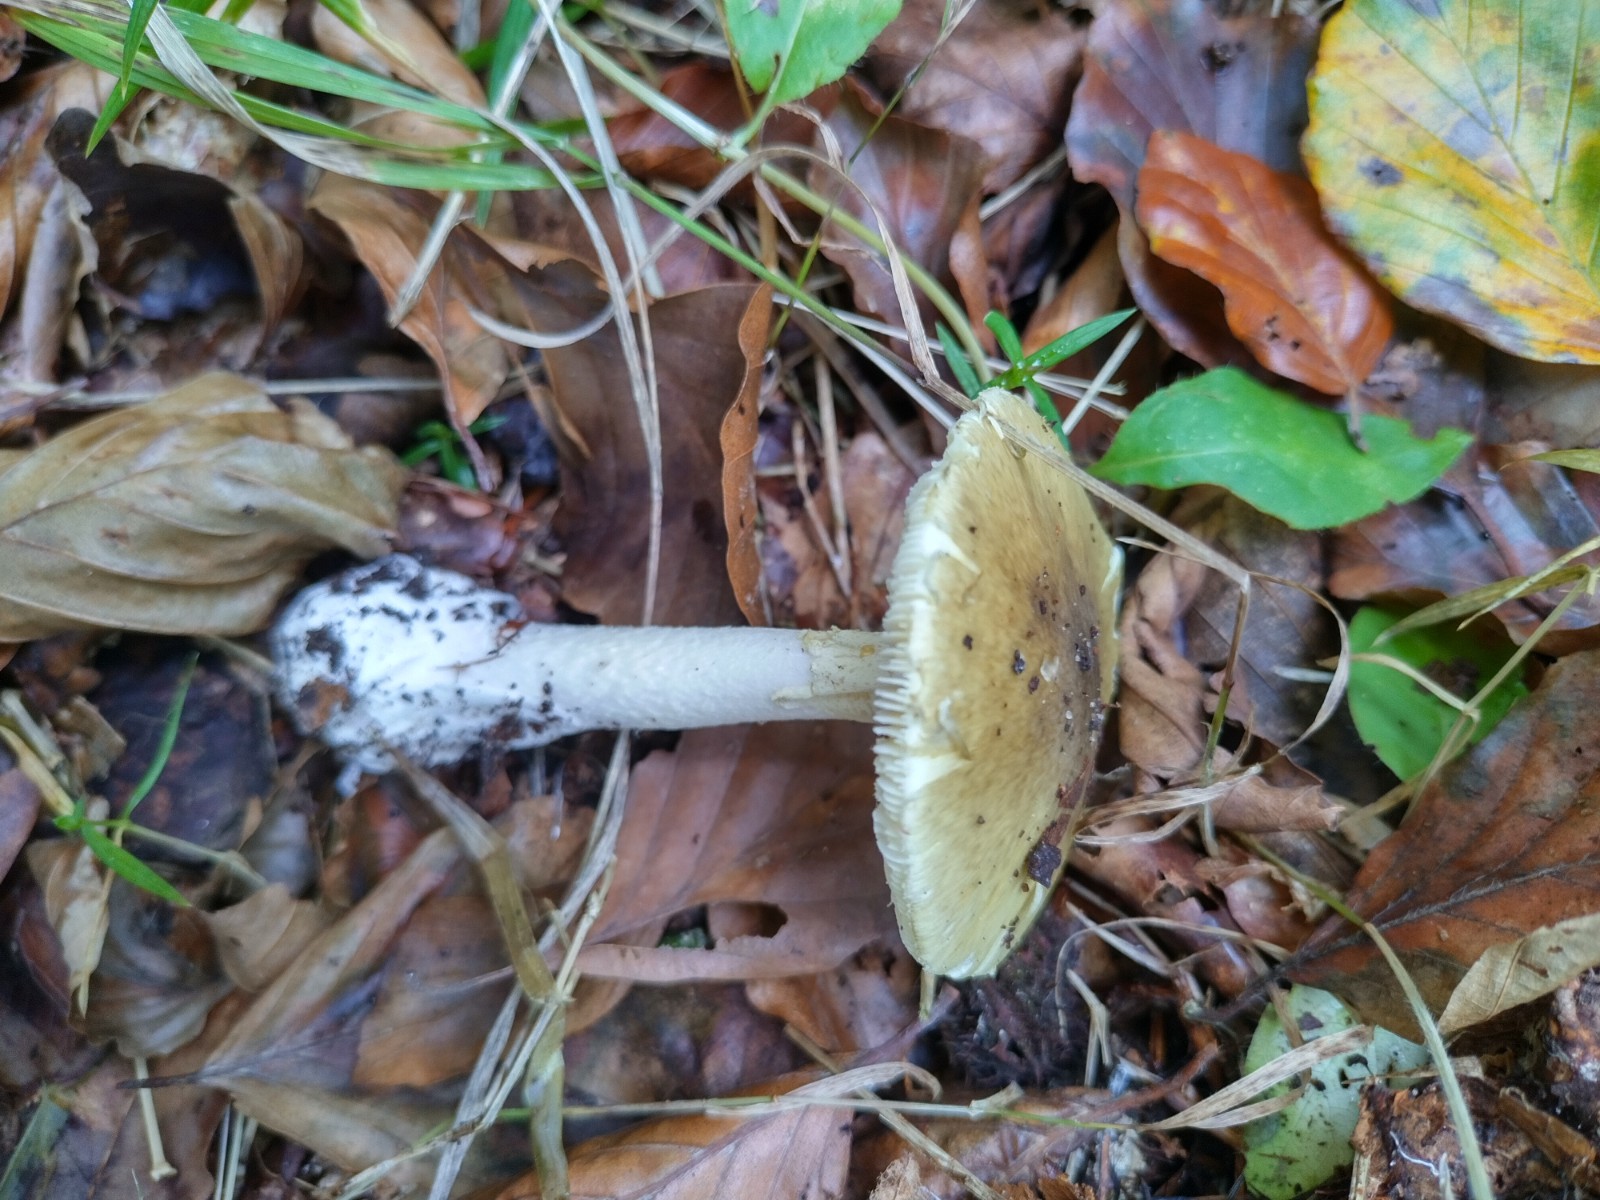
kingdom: Fungi
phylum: Basidiomycota
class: Agaricomycetes
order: Agaricales
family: Amanitaceae
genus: Amanita
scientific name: Amanita phalloides
